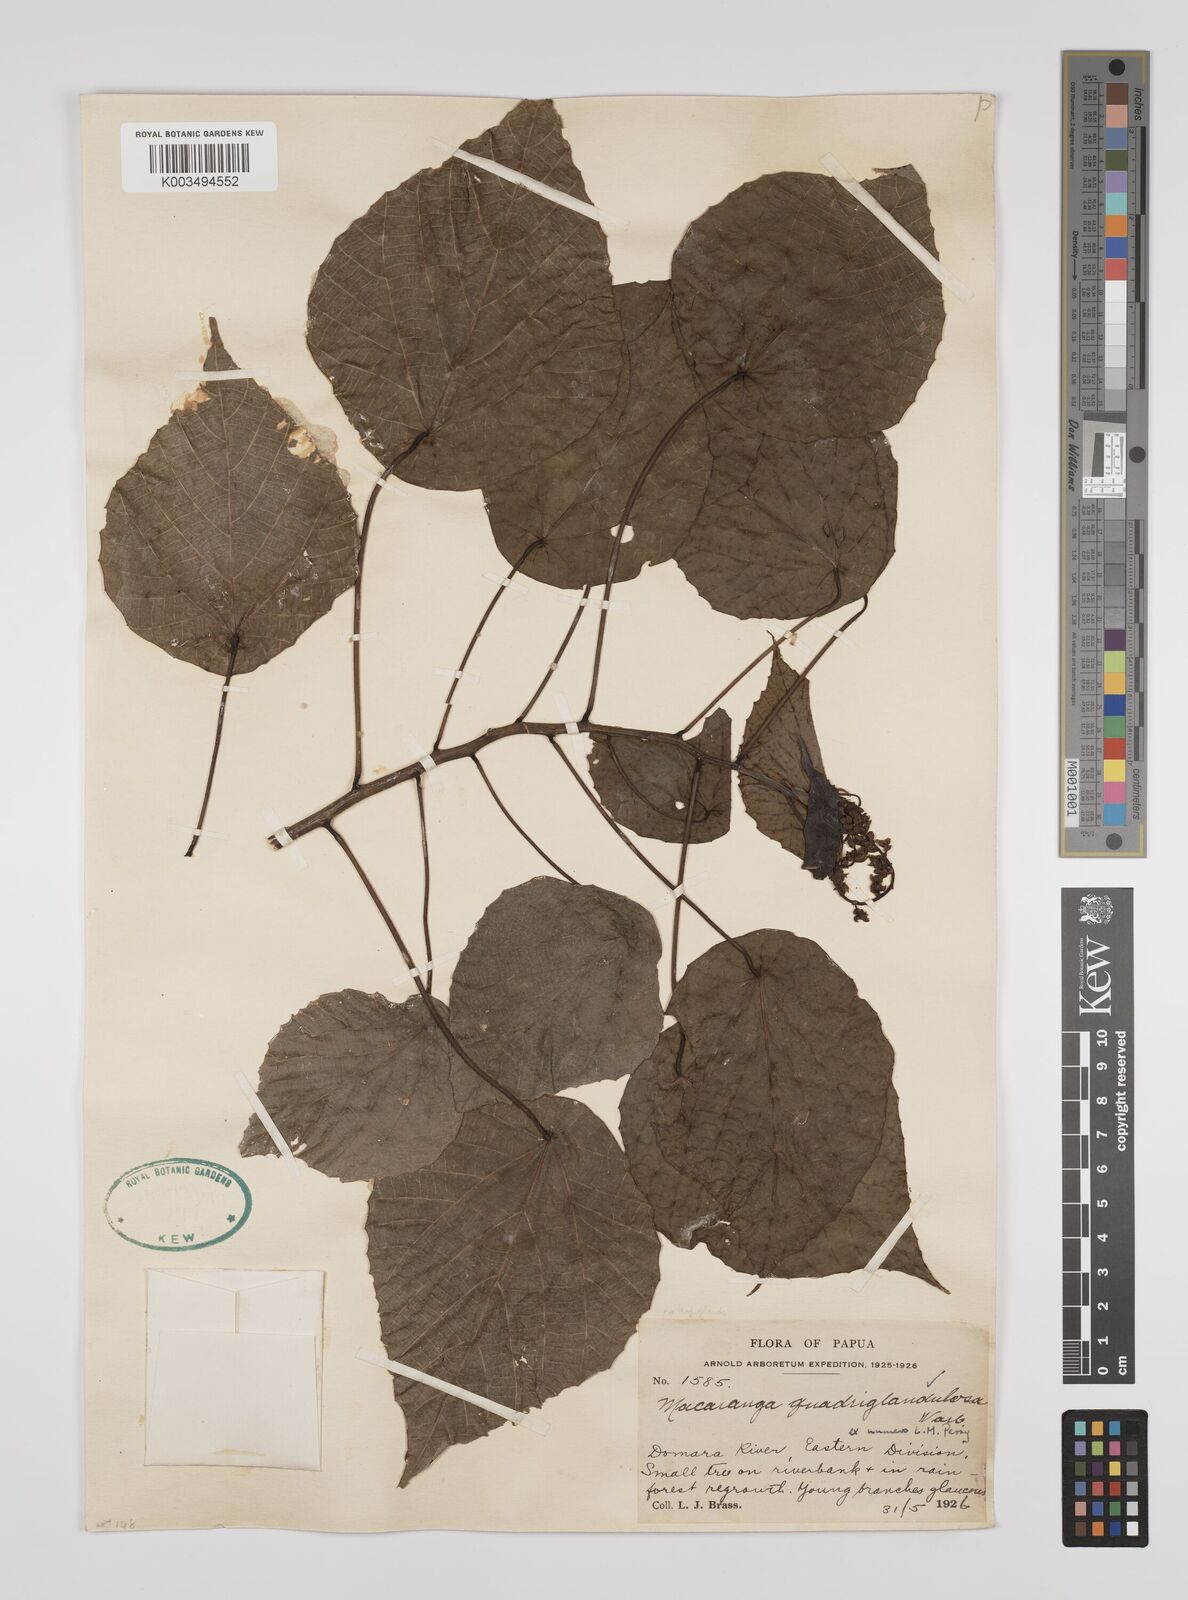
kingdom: Plantae
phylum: Tracheophyta
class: Magnoliopsida
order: Malpighiales
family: Euphorbiaceae
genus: Macaranga
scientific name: Macaranga quadriglandulosa
